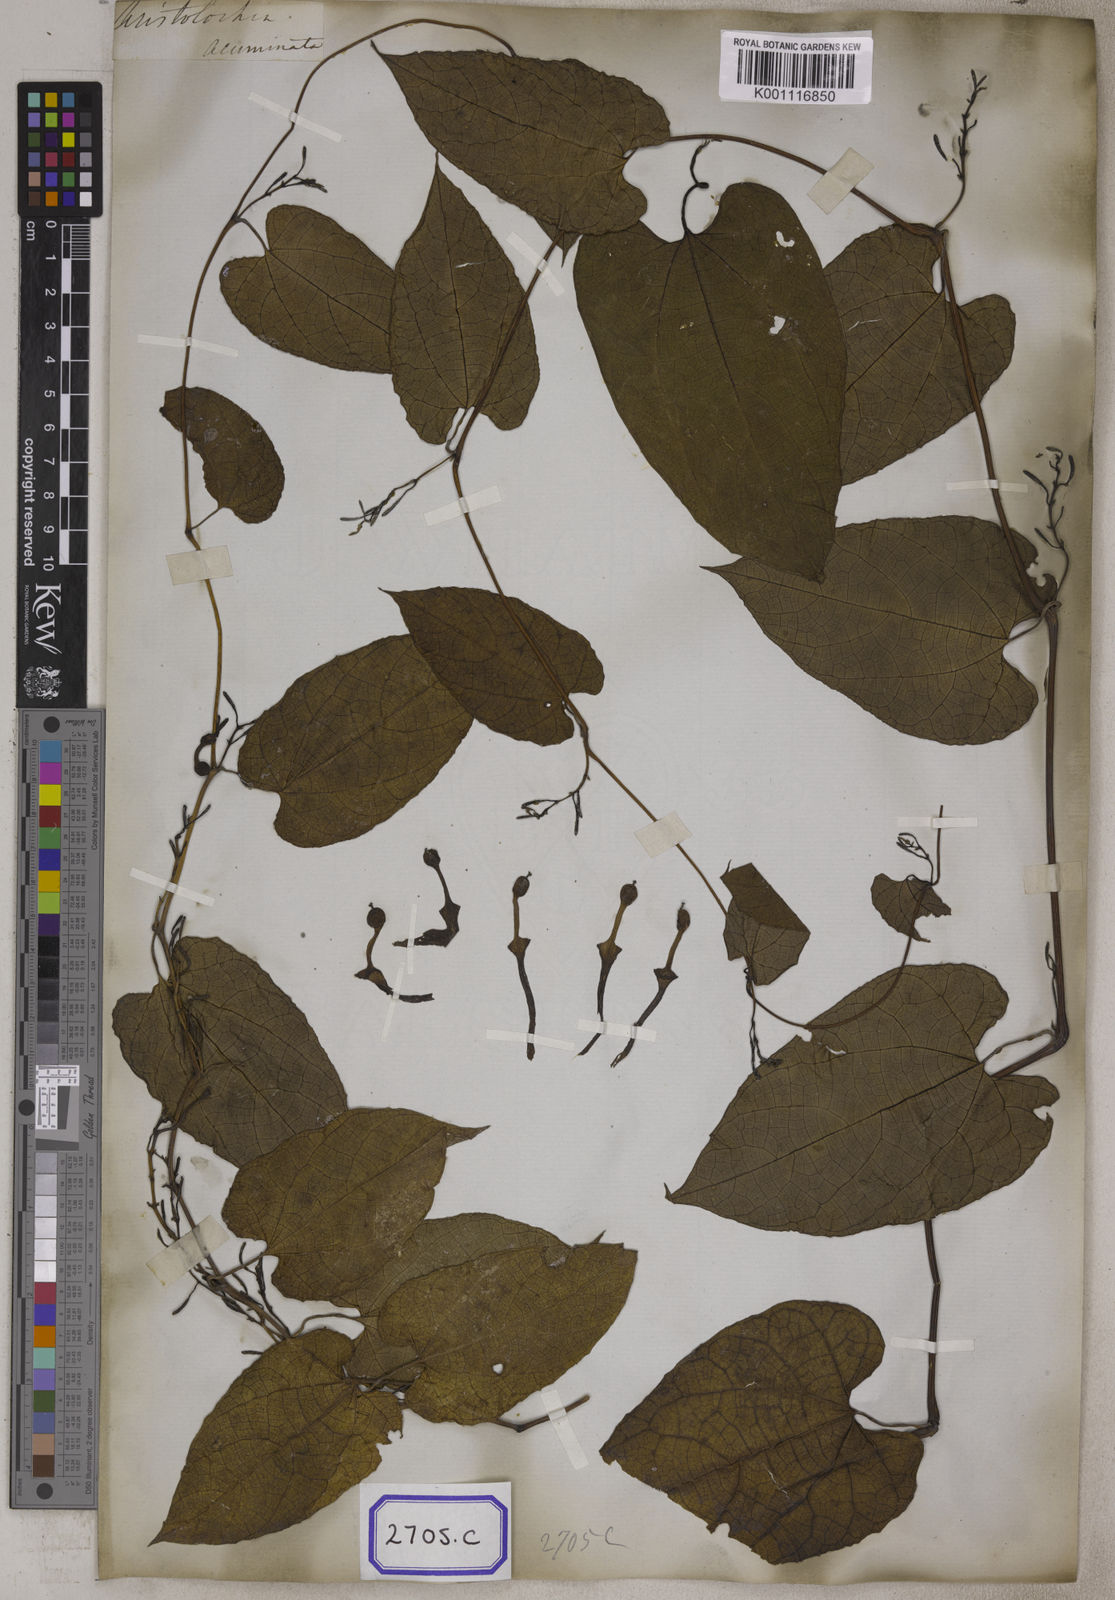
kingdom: Plantae
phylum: Tracheophyta
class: Magnoliopsida
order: Piperales
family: Aristolochiaceae
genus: Aristolochia
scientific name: Aristolochia acuminata
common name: Indian birthwort
